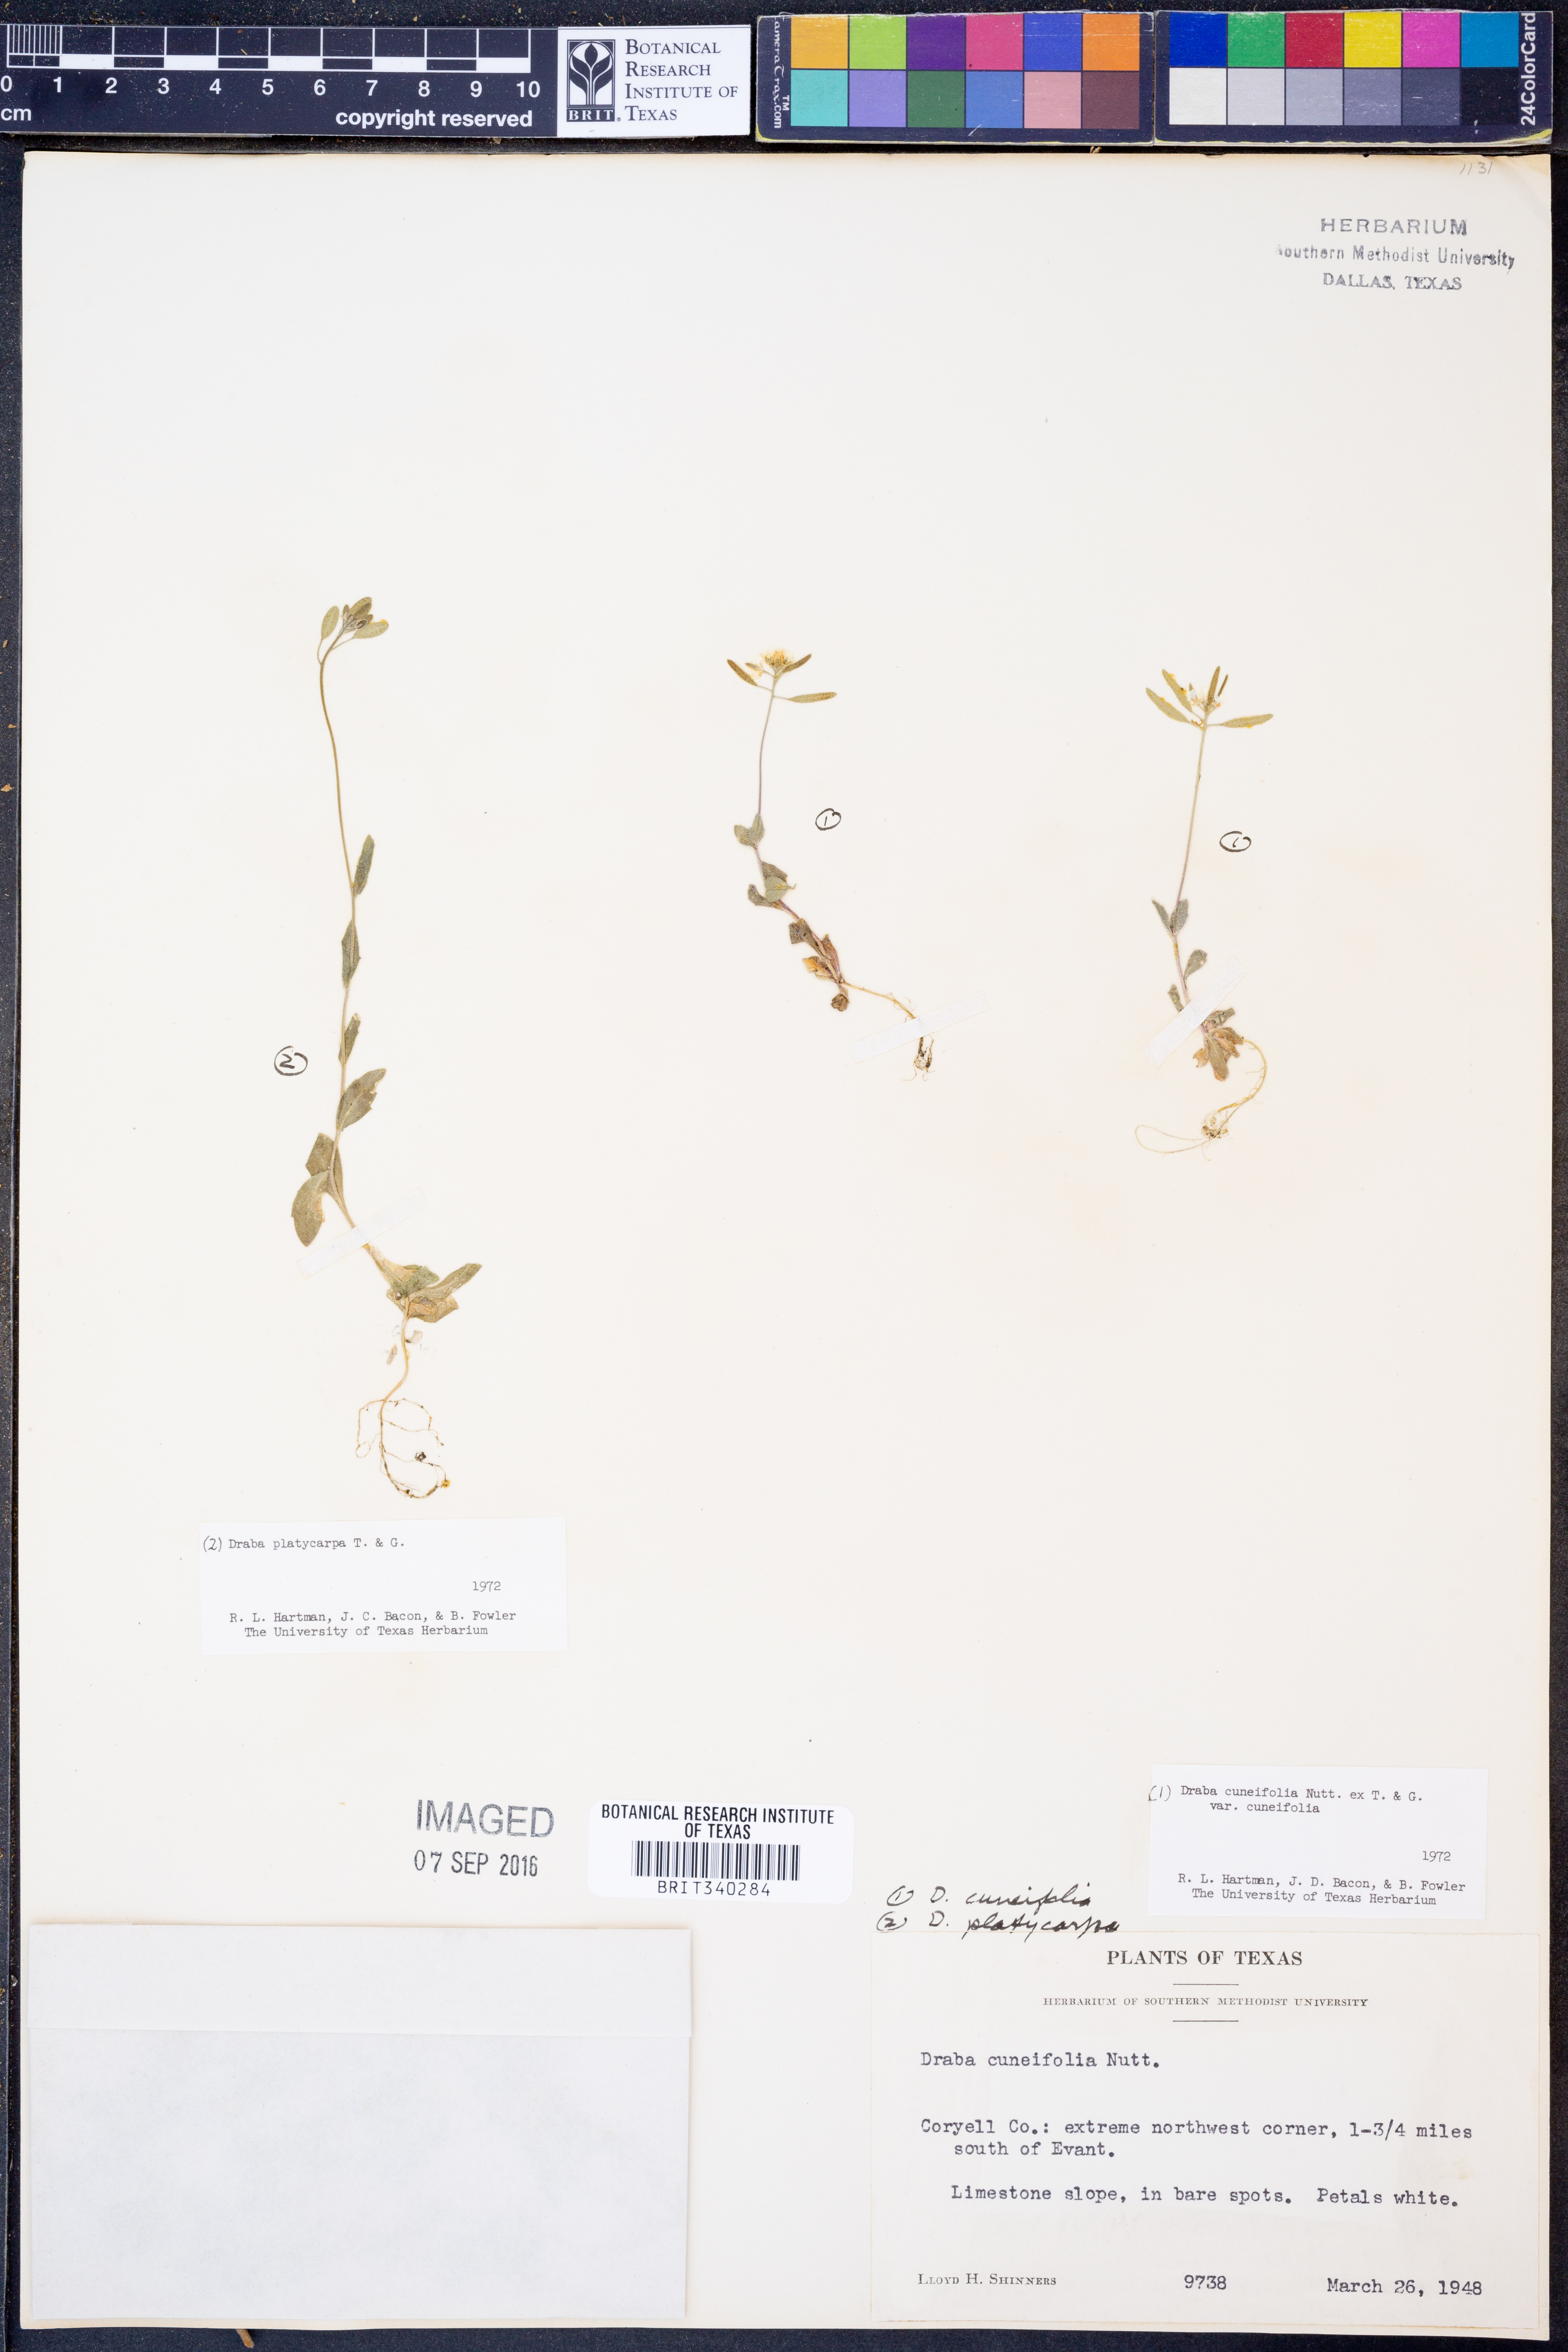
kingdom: Plantae
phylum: Tracheophyta
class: Magnoliopsida
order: Brassicales
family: Brassicaceae
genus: Tomostima
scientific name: Tomostima cuneifolia
